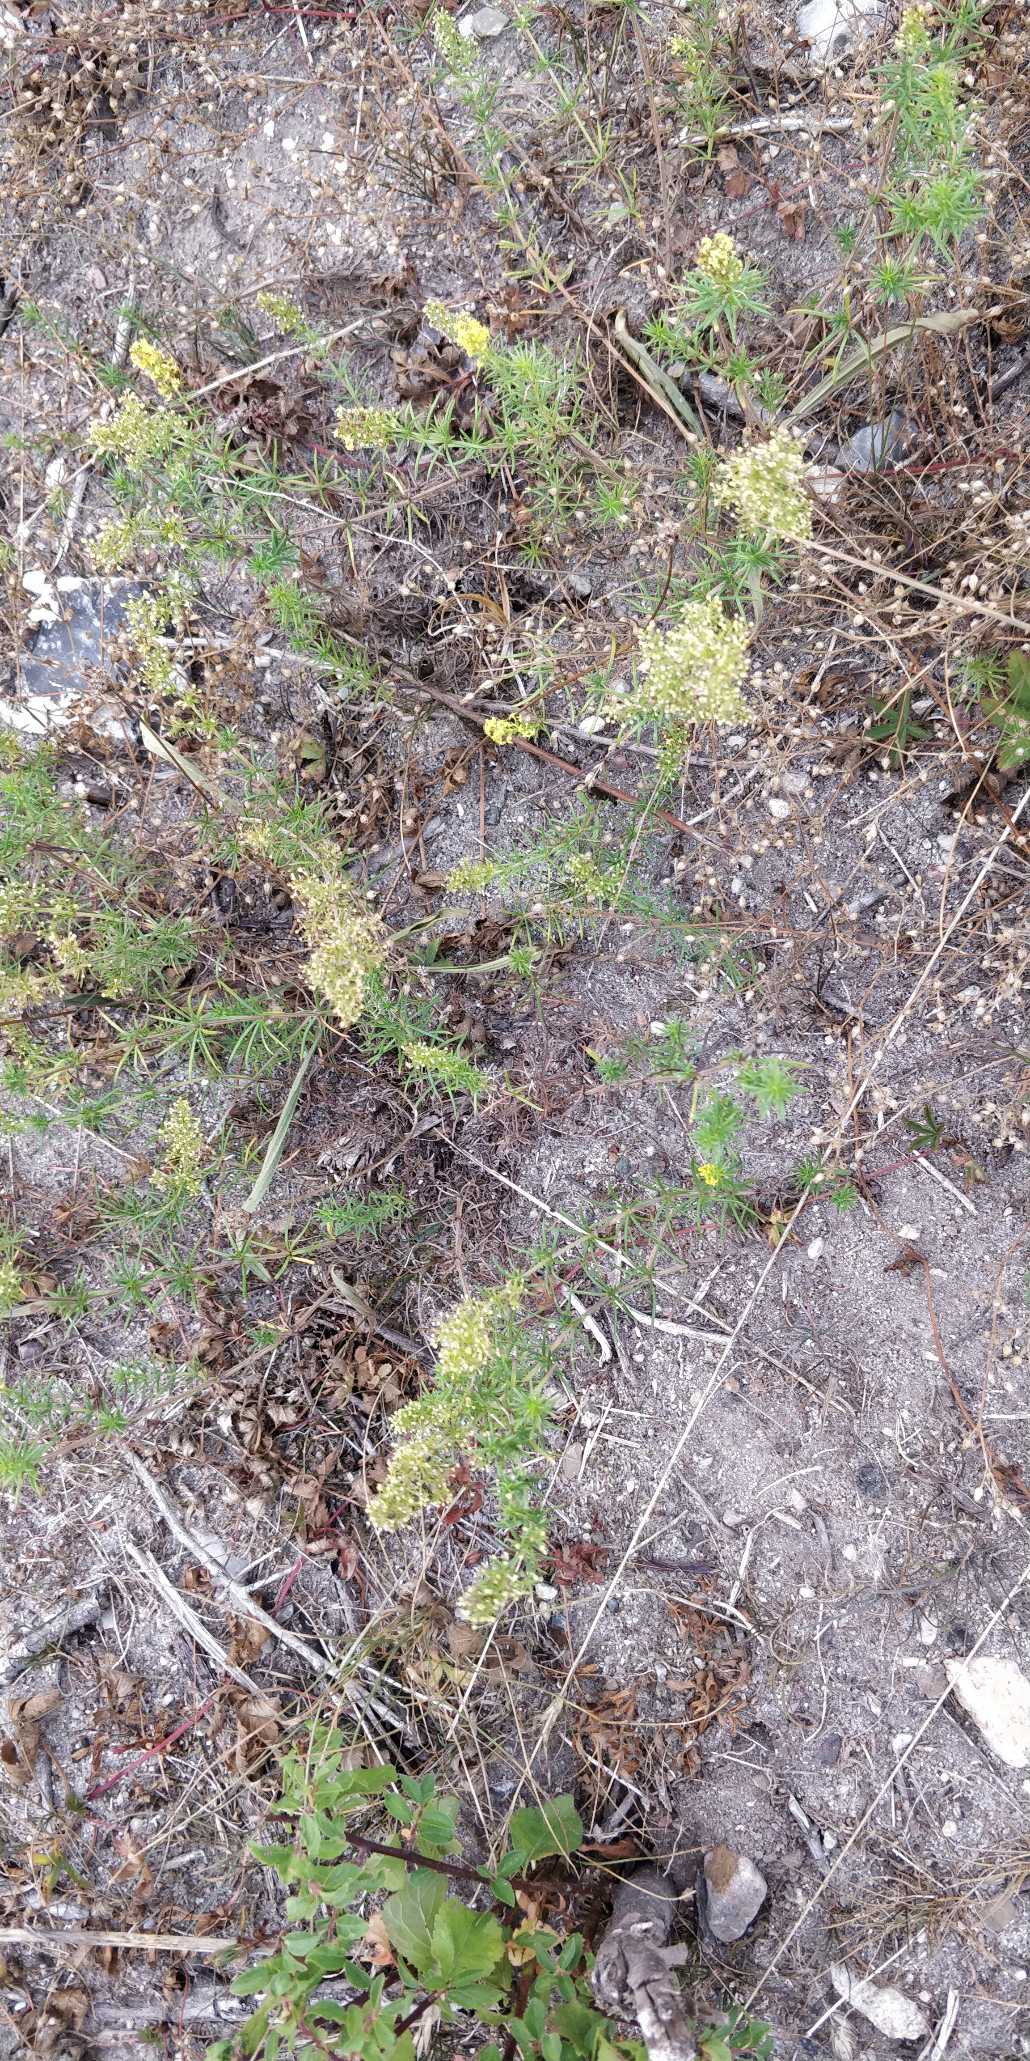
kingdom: Plantae
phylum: Tracheophyta
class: Magnoliopsida
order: Gentianales
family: Rubiaceae
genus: Galium
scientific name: Galium verum
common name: Gul snerre
